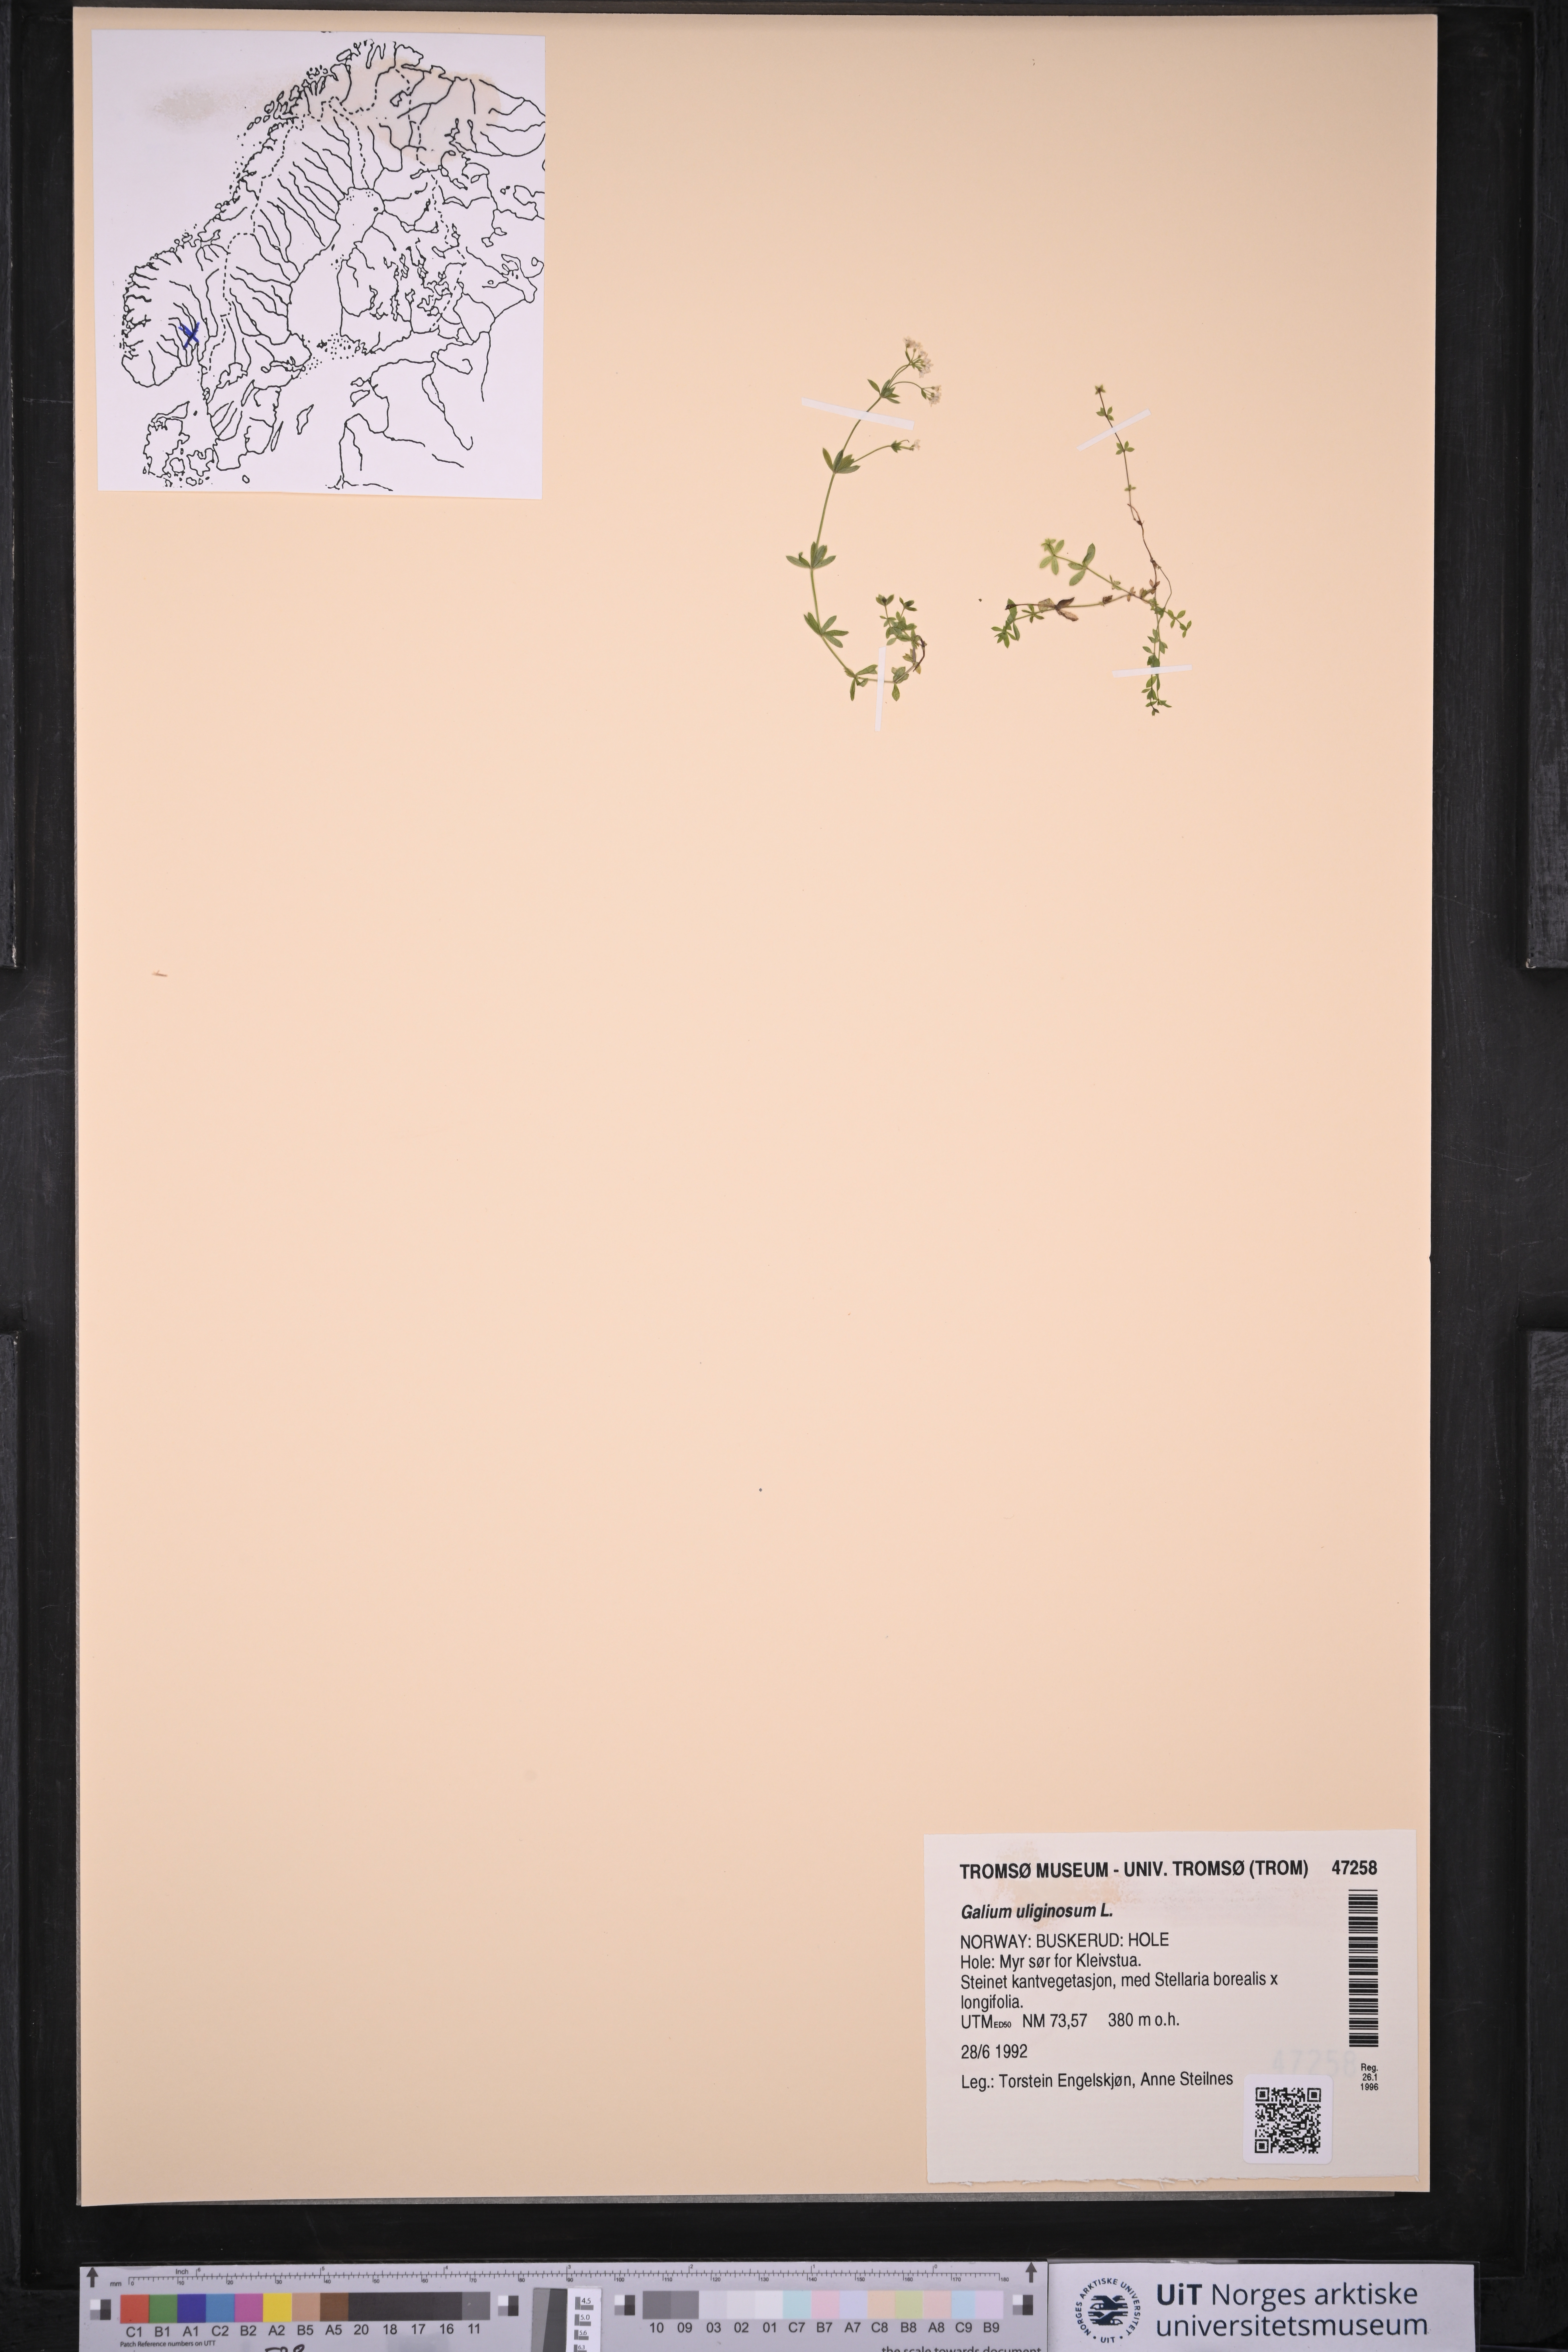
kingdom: Plantae
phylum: Tracheophyta
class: Magnoliopsida
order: Gentianales
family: Rubiaceae
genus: Galium
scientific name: Galium uliginosum
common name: Fen bedstraw
